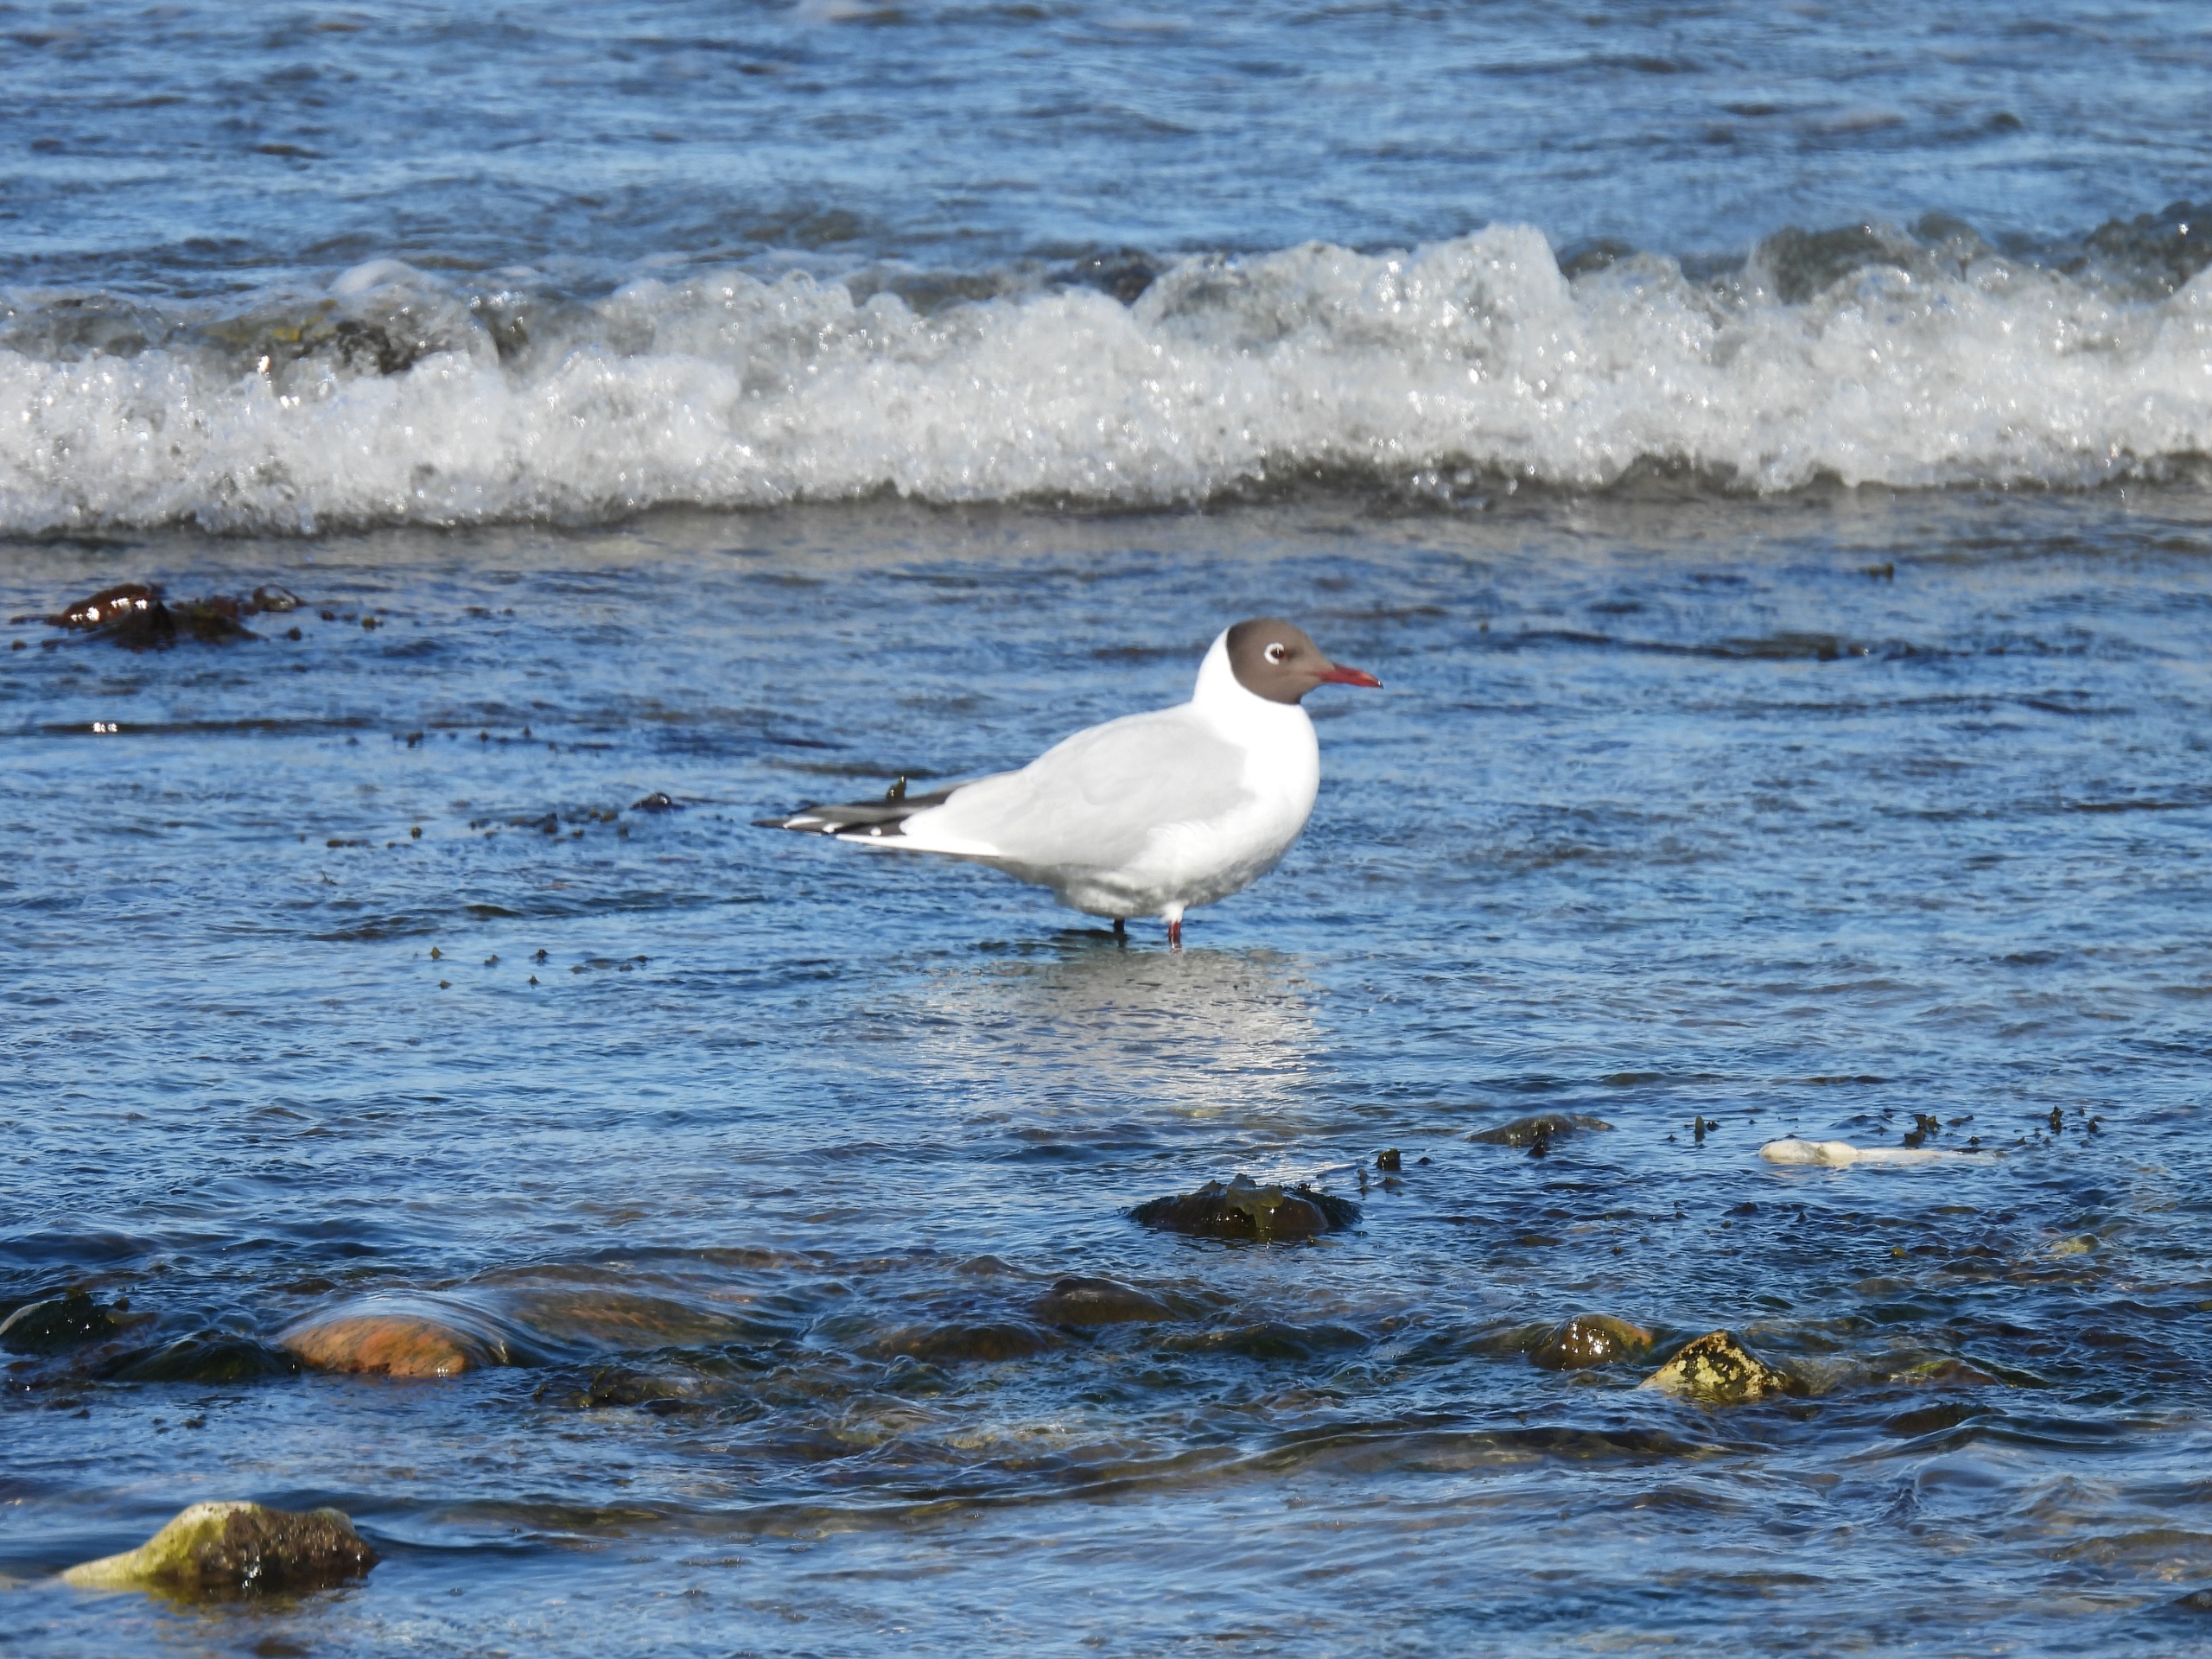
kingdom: Animalia
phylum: Chordata
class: Aves
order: Charadriiformes
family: Laridae
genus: Chroicocephalus
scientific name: Chroicocephalus ridibundus
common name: Hættemåge
